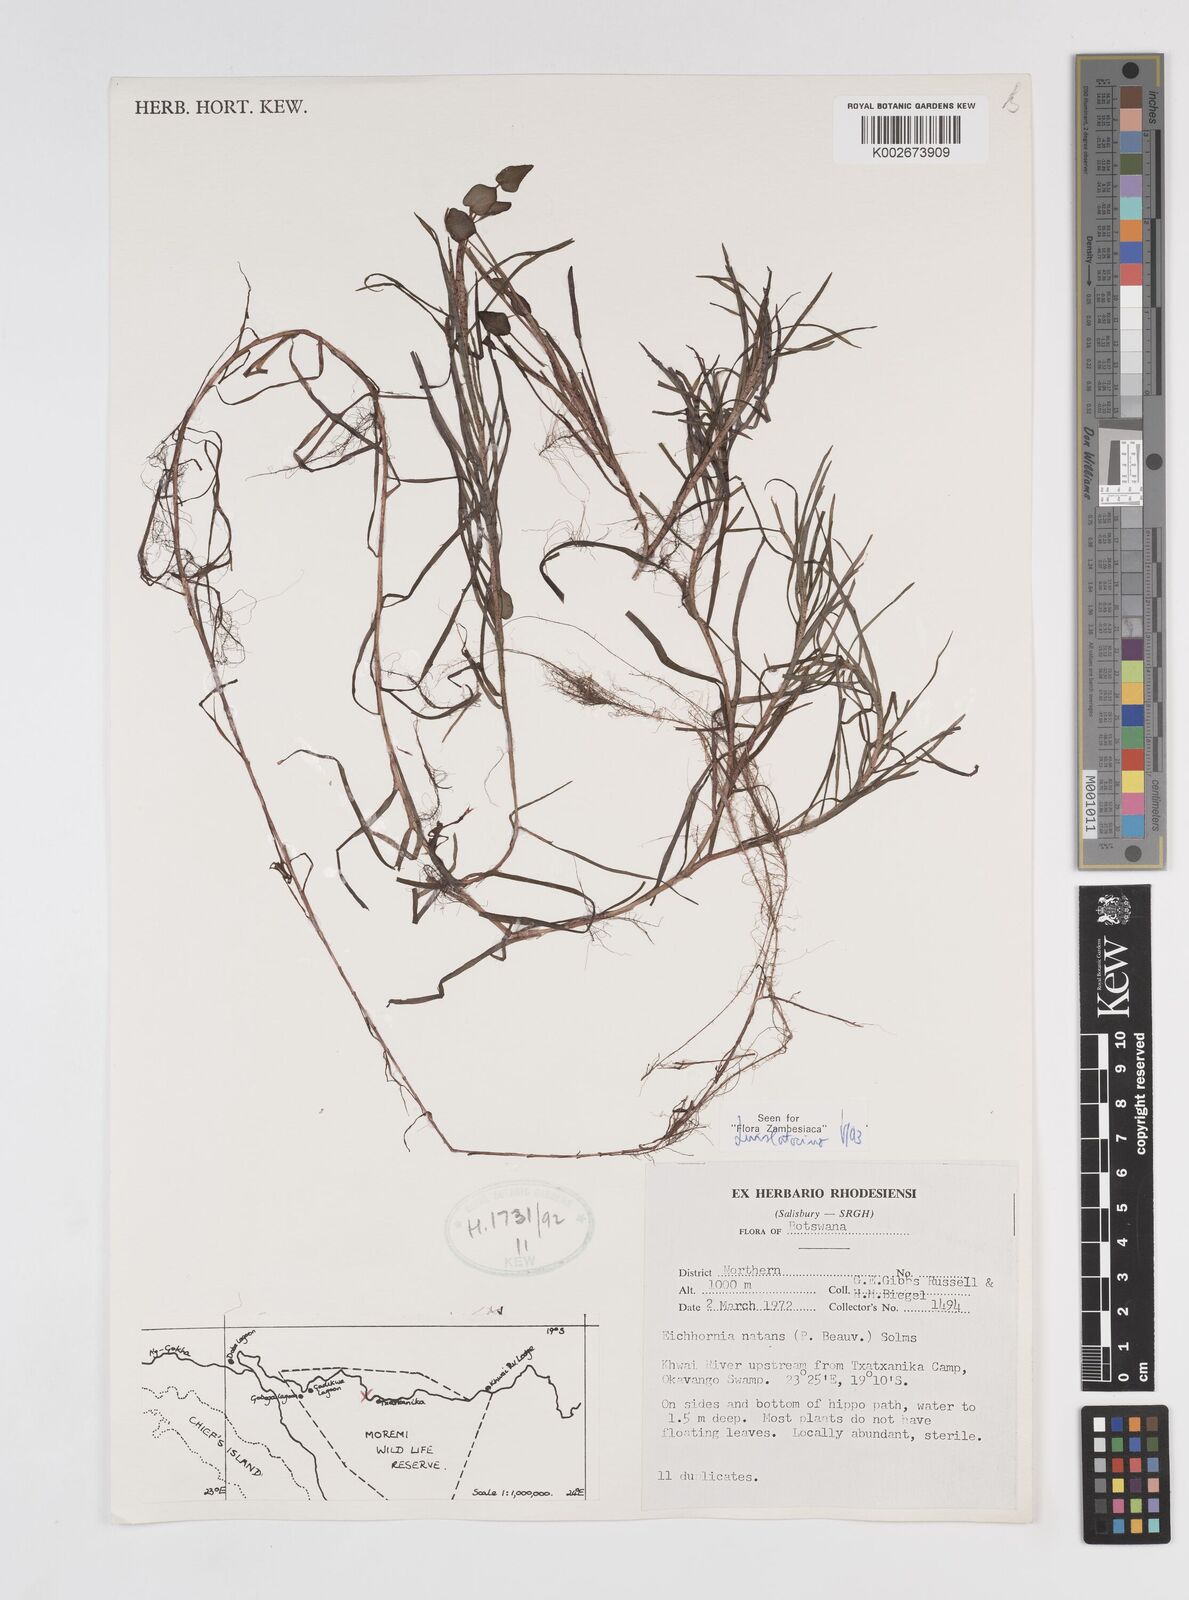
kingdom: Plantae
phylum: Tracheophyta
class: Liliopsida
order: Commelinales
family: Pontederiaceae
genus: Pontederia
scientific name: Pontederia natans
